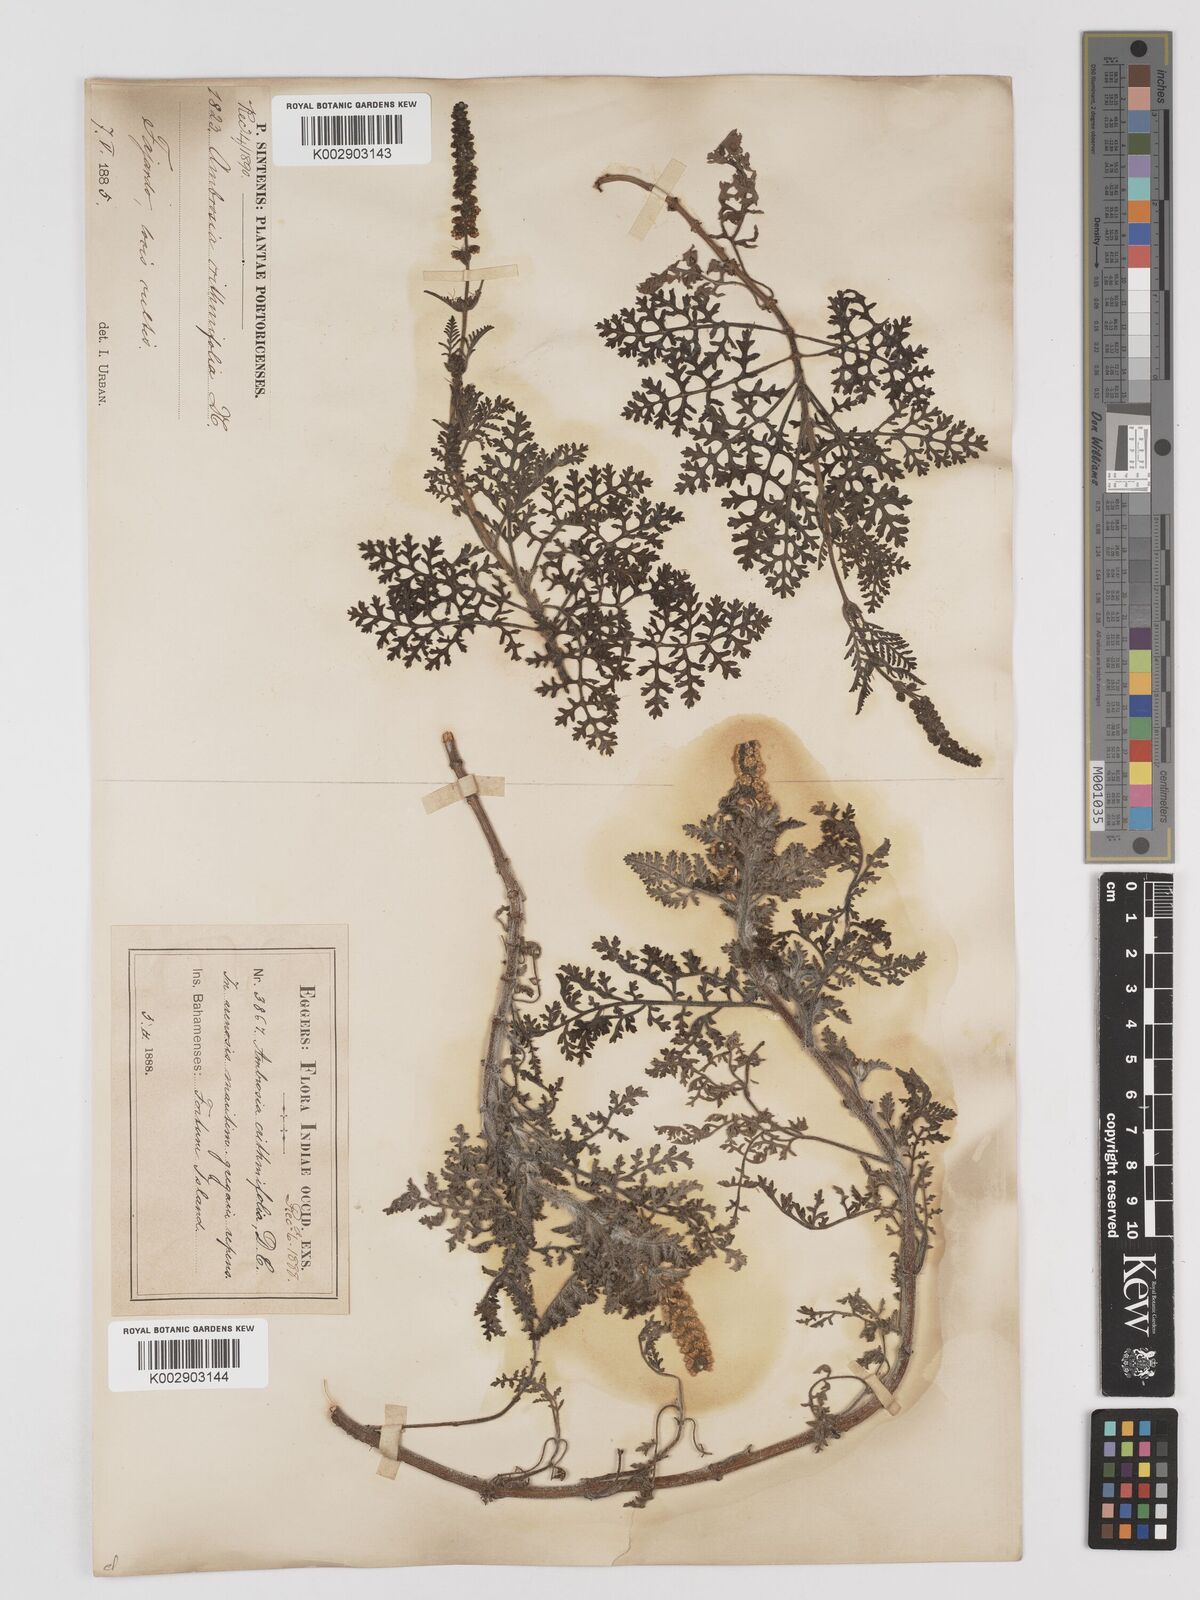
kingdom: Plantae
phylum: Tracheophyta
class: Magnoliopsida
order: Asterales
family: Asteraceae
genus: Ambrosia
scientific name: Ambrosia hispida
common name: Coastal ragweed
